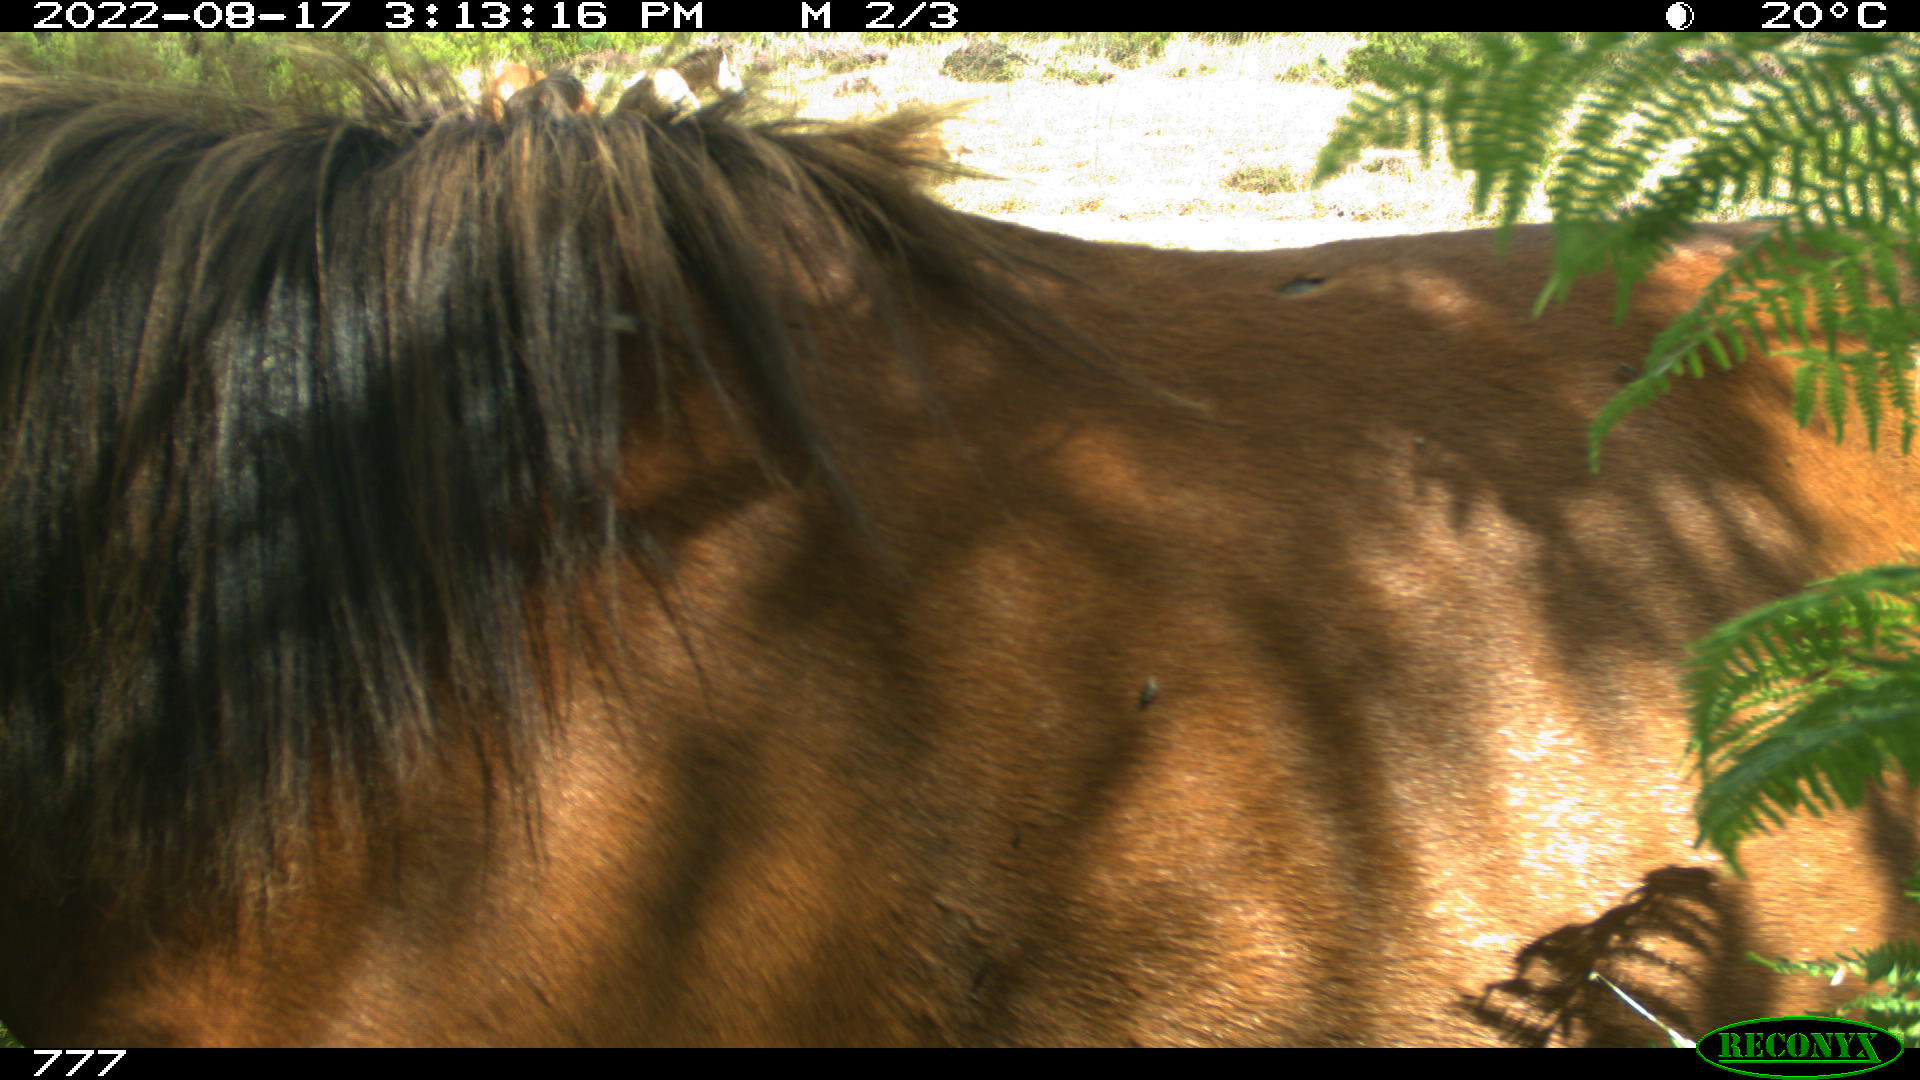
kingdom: Animalia
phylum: Chordata
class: Mammalia
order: Perissodactyla
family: Equidae
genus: Equus
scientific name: Equus caballus
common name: Horse
